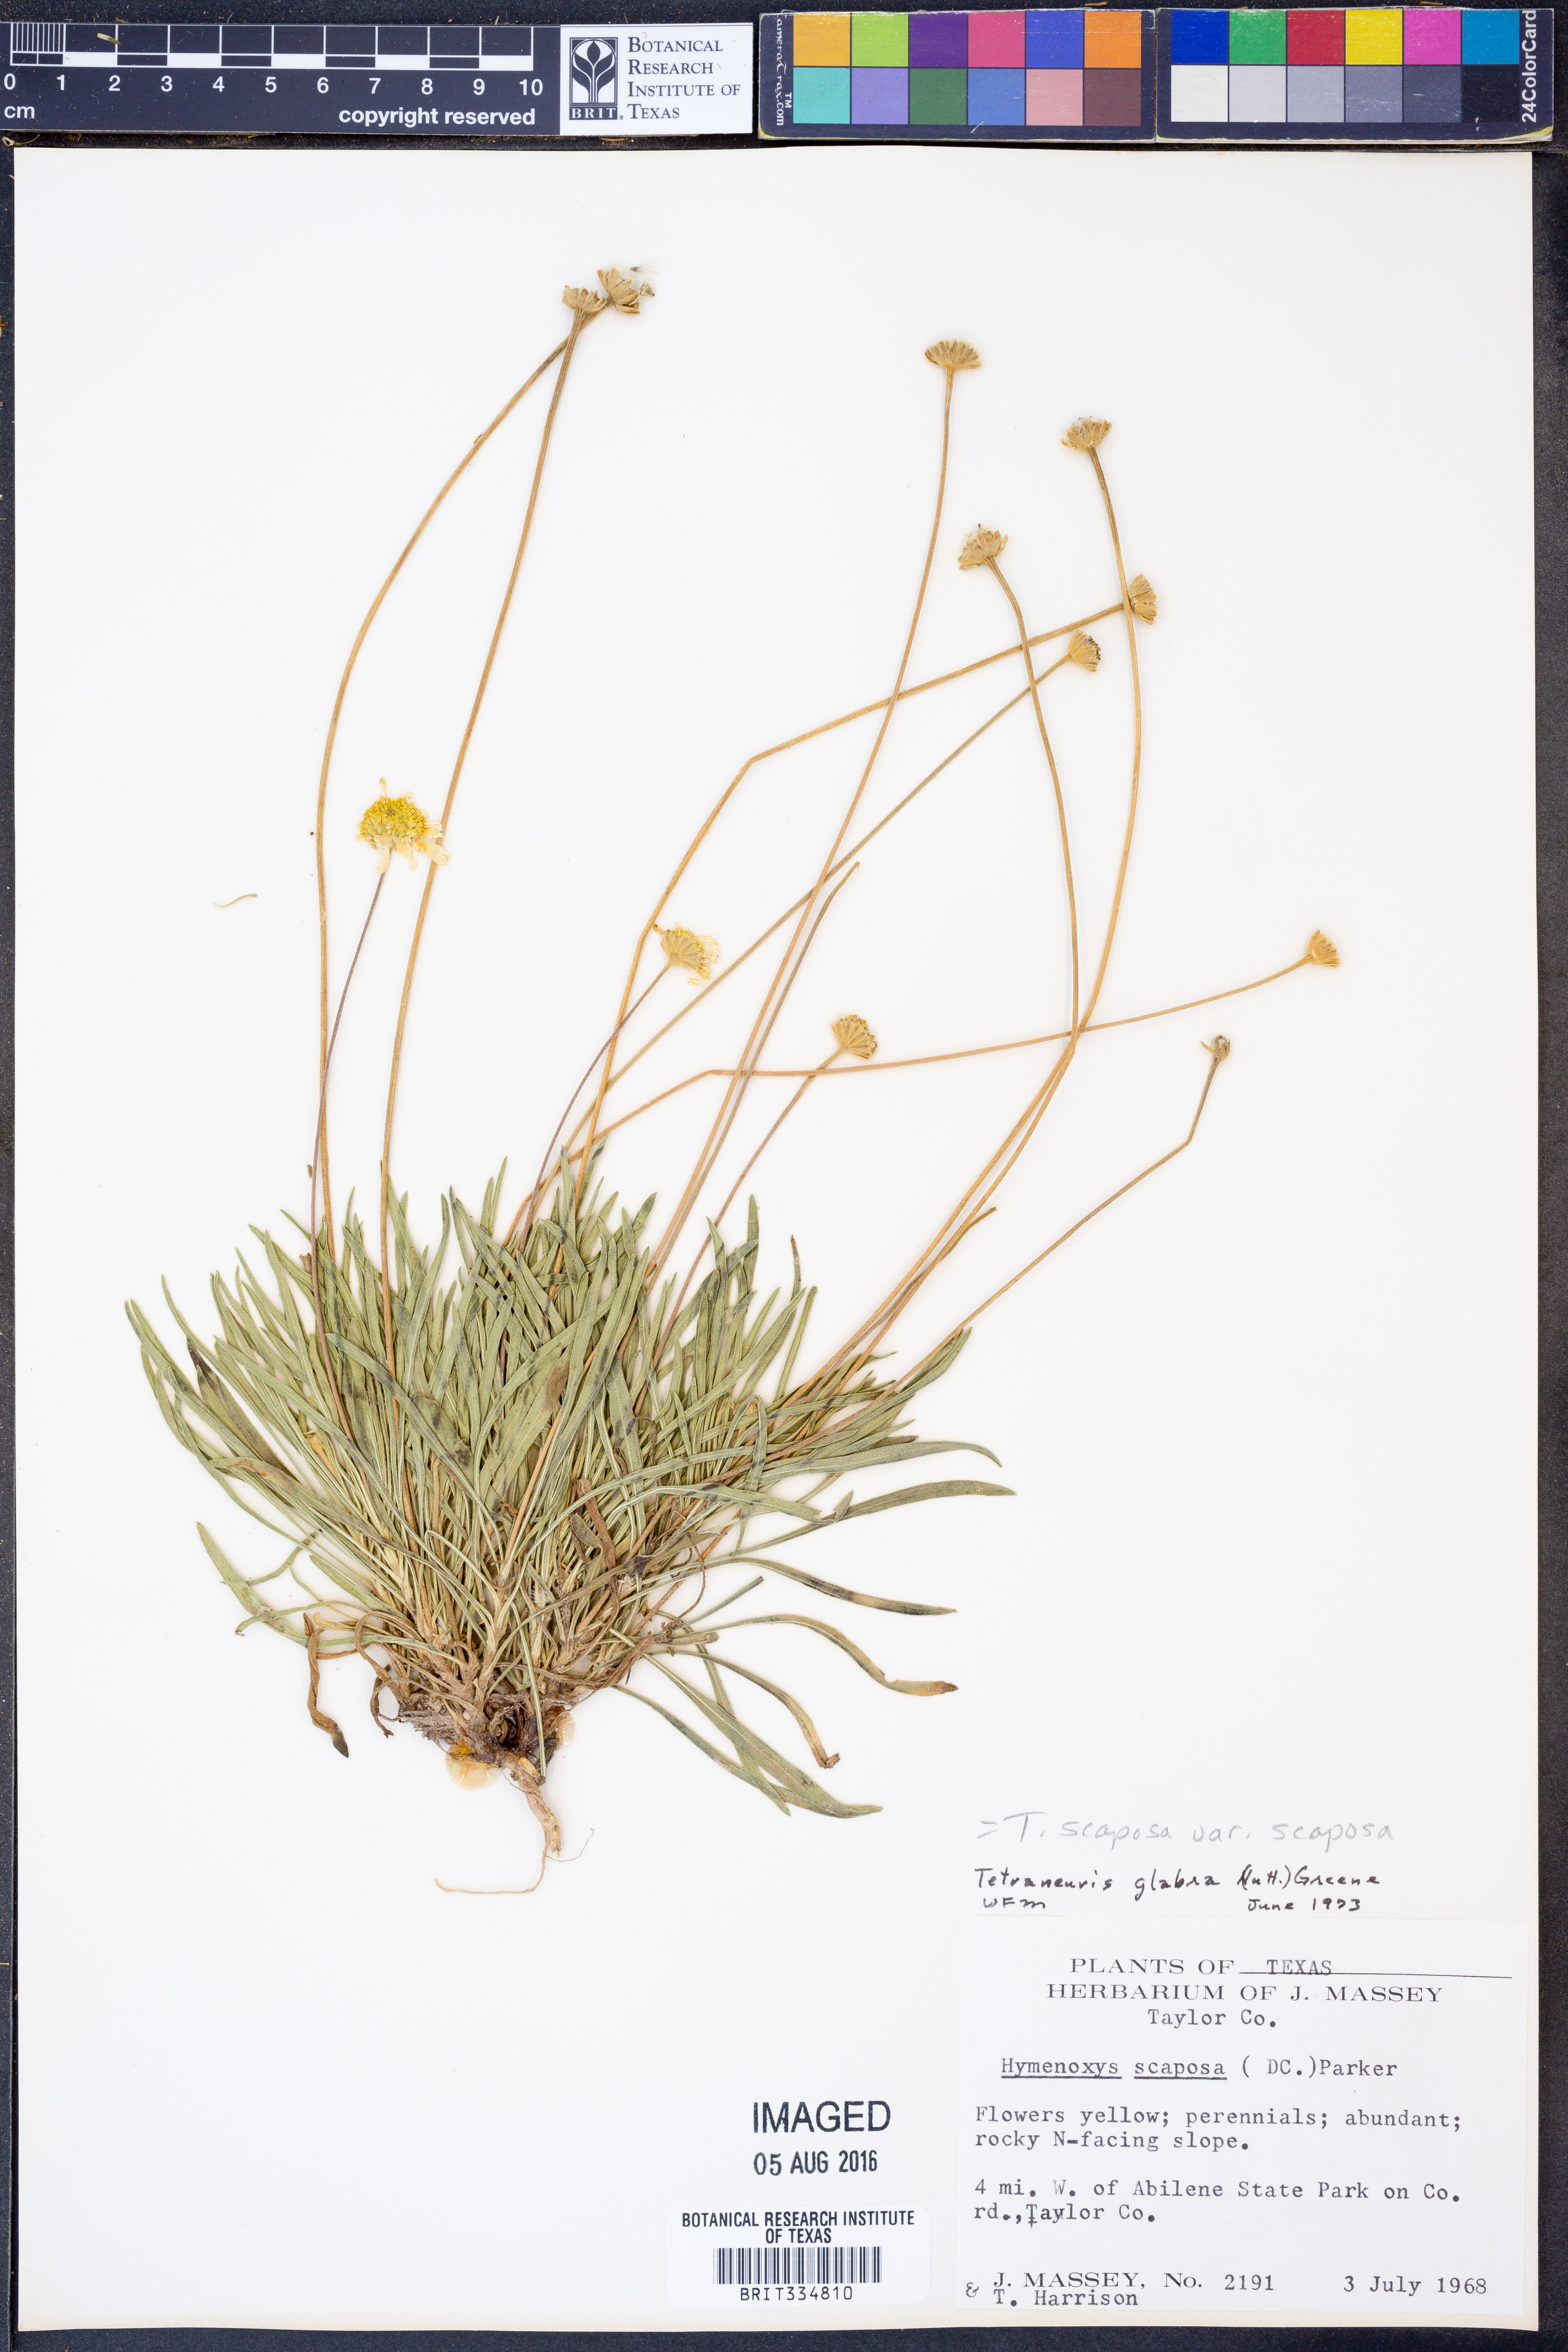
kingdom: Plantae
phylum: Tracheophyta
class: Magnoliopsida
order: Asterales
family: Asteraceae
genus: Tetraneuris
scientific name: Tetraneuris scaposa
